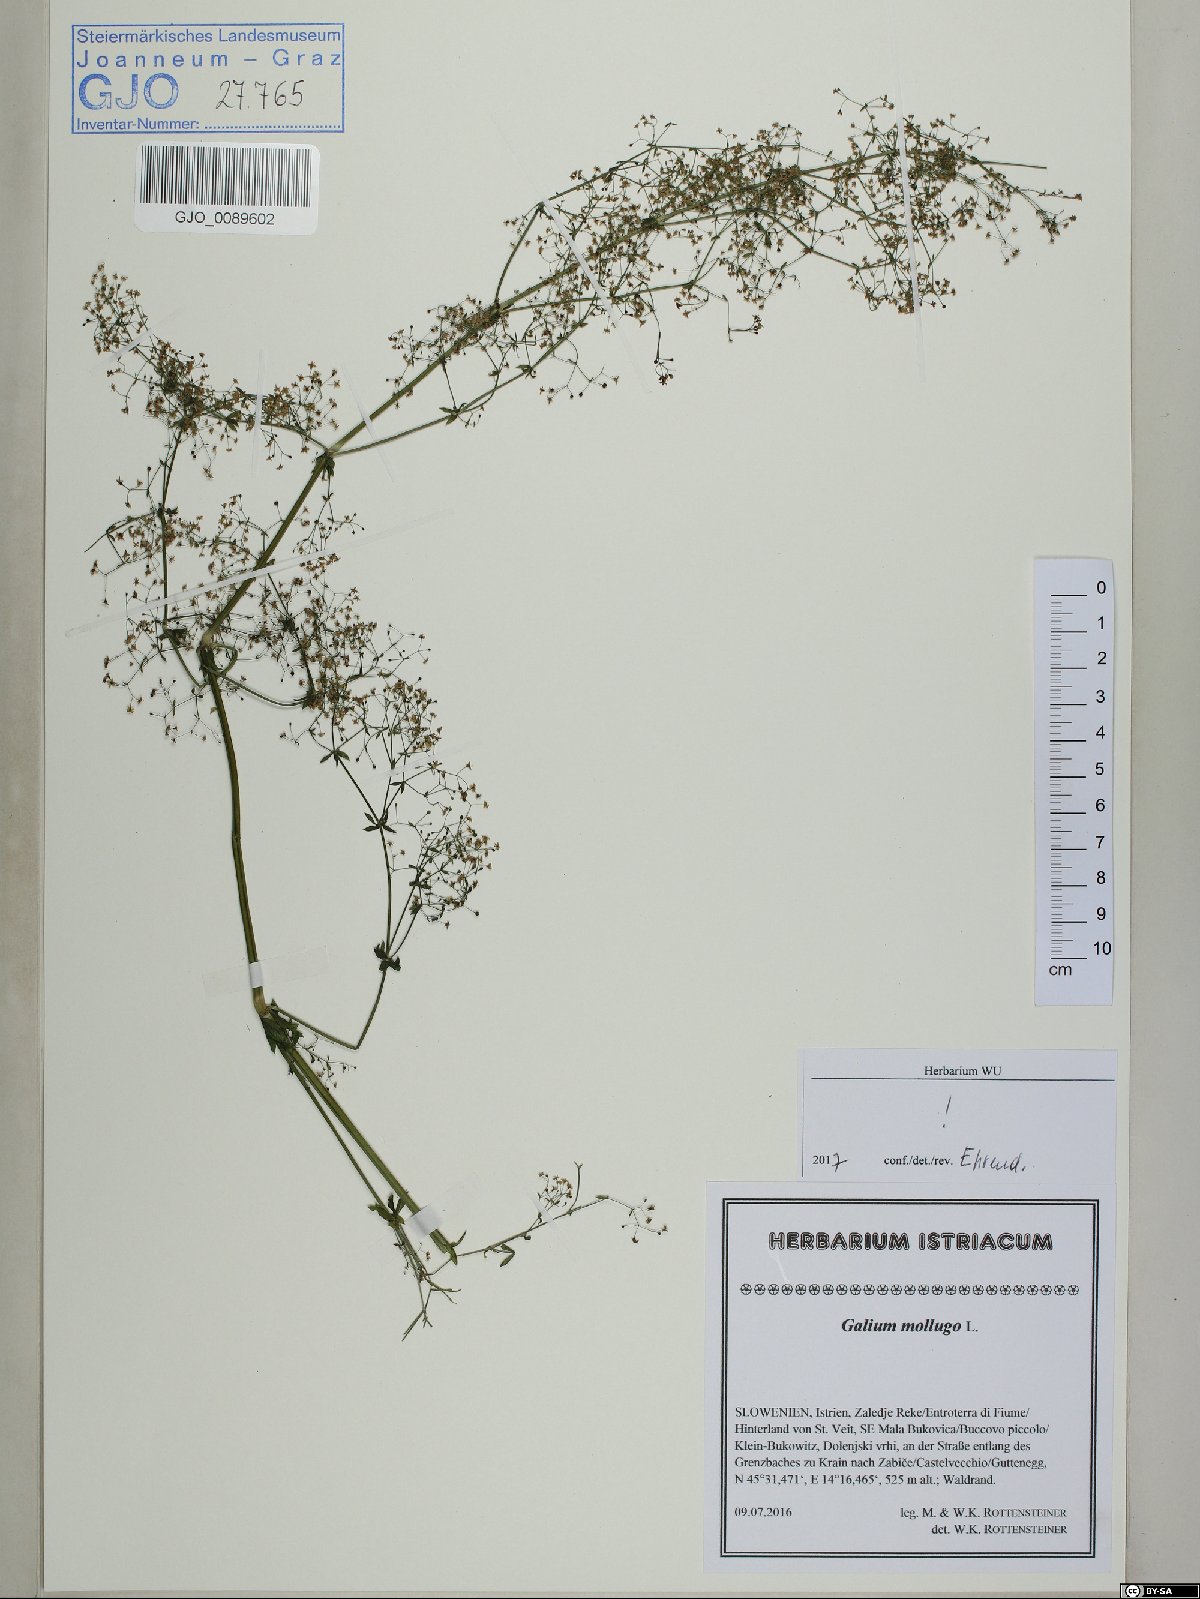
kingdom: Plantae
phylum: Tracheophyta
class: Magnoliopsida
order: Gentianales
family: Rubiaceae
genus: Galium
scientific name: Galium mollugo
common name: Hedge bedstraw
